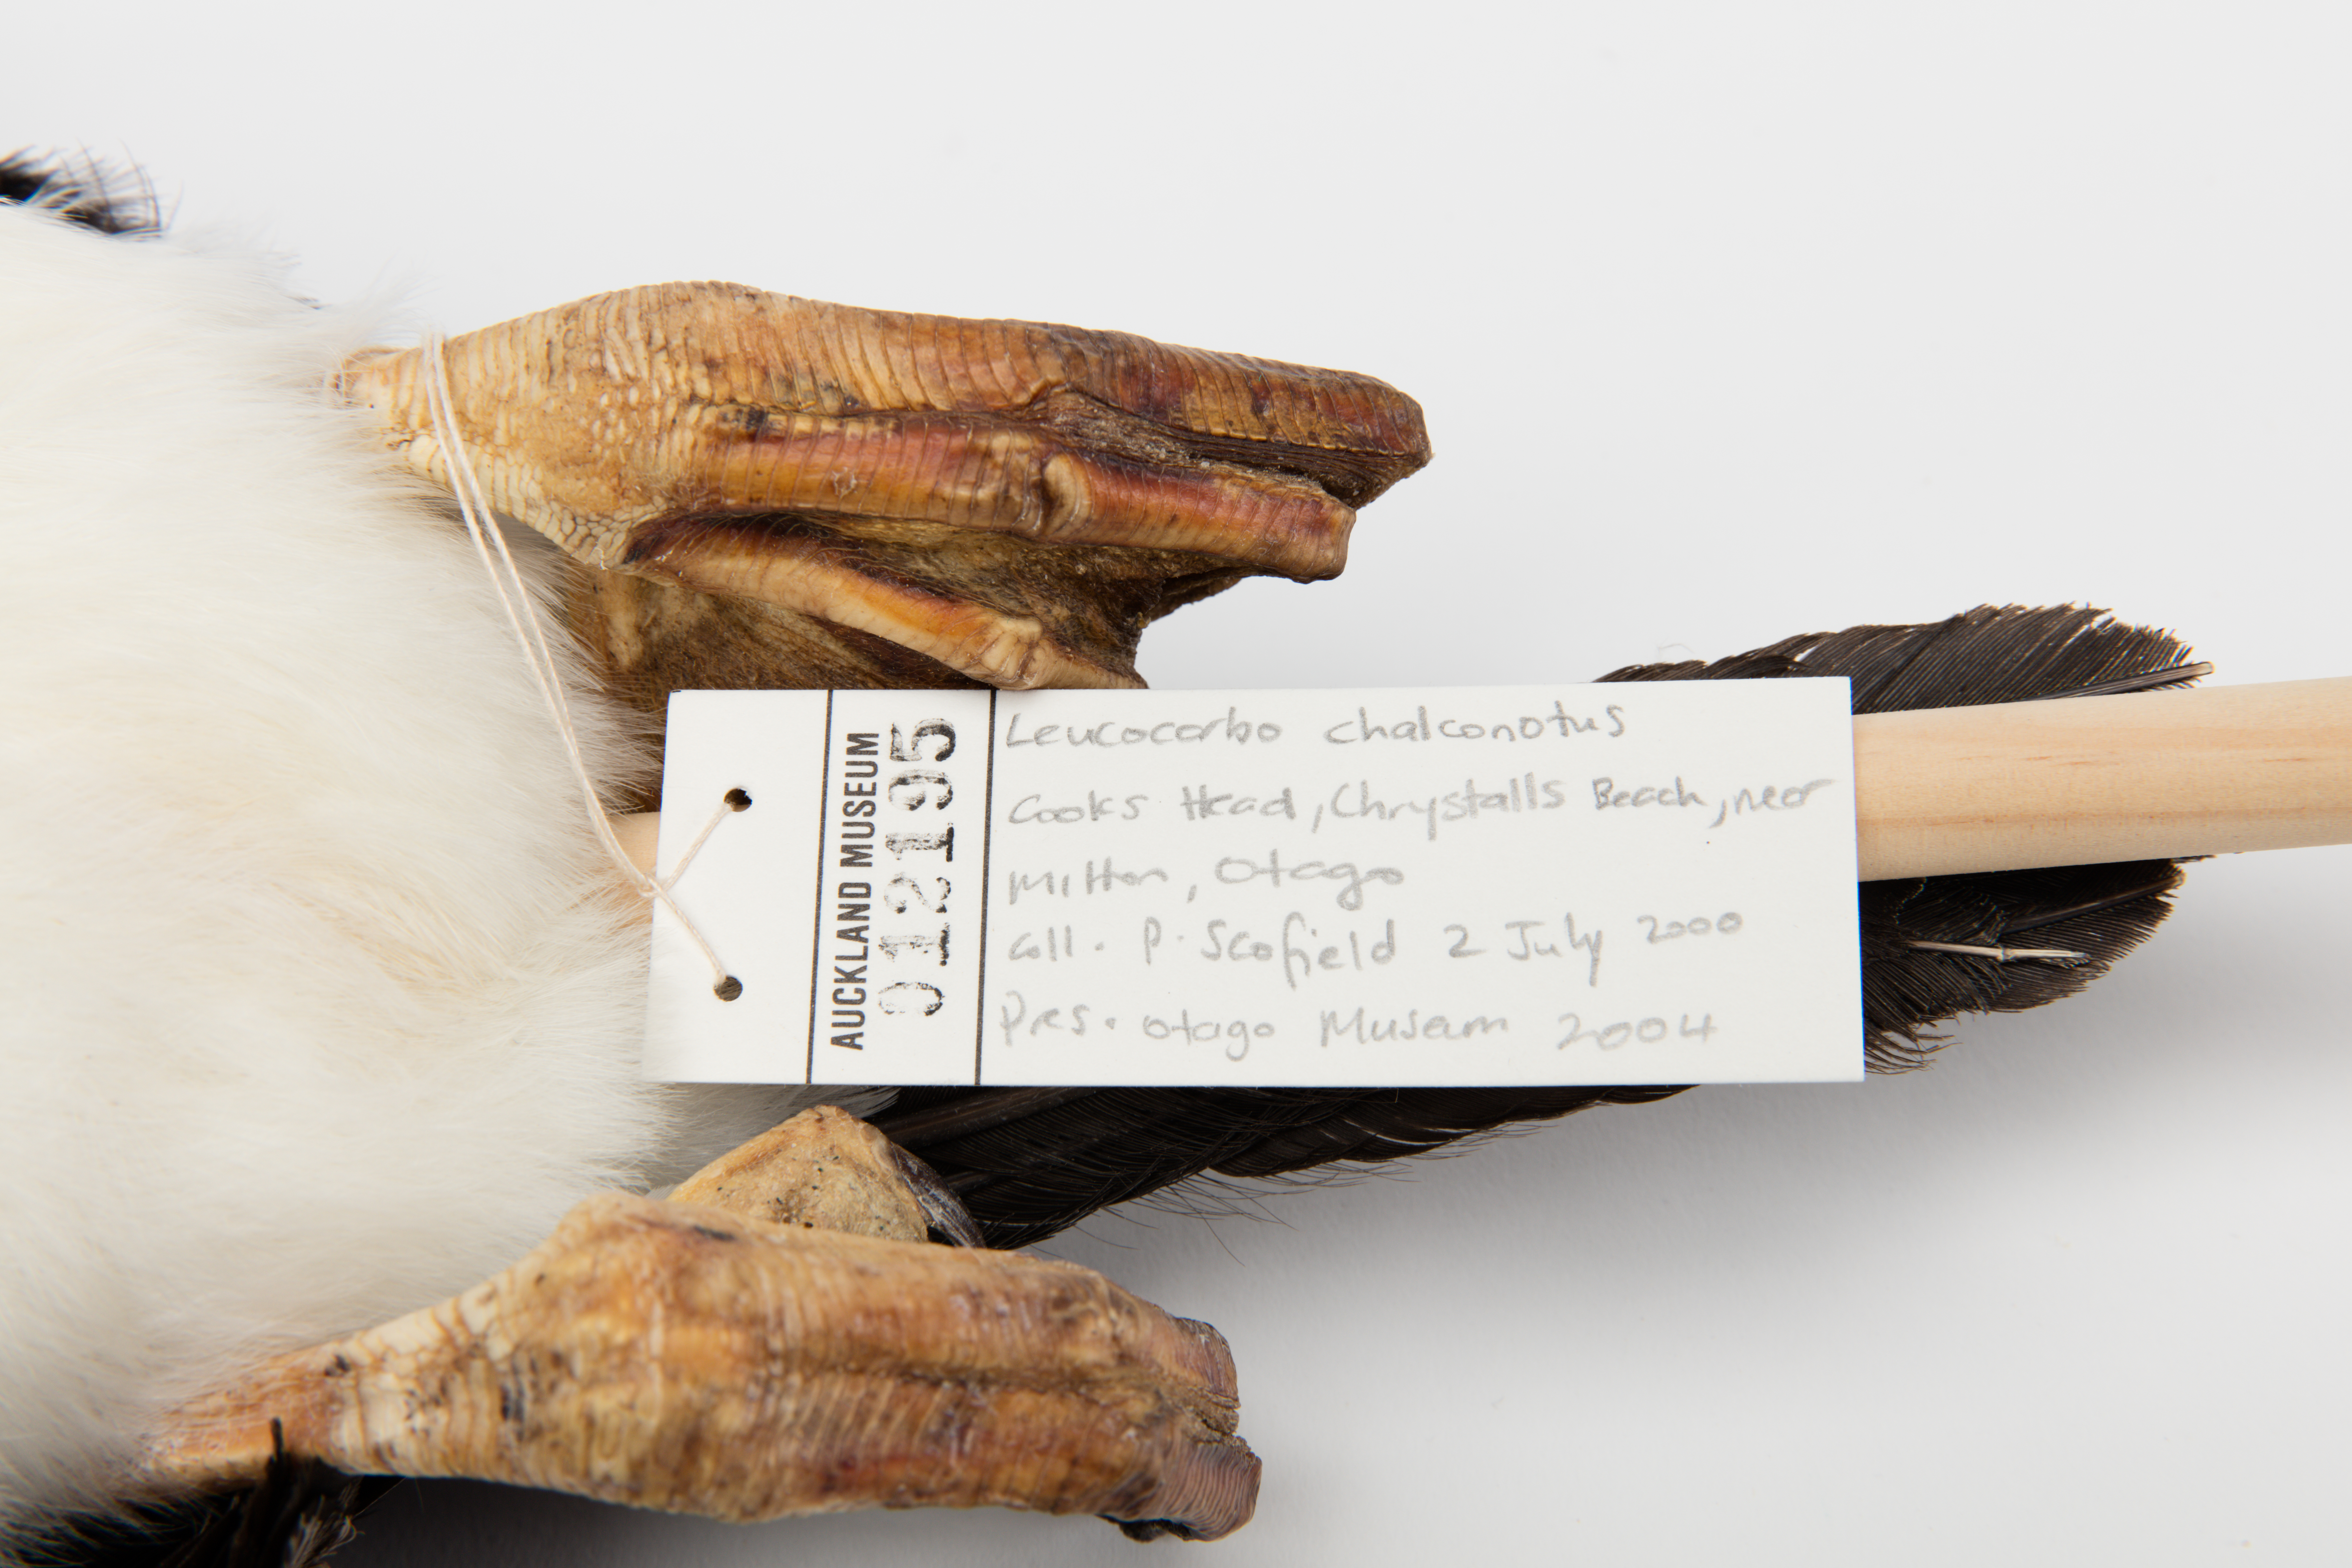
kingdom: Animalia
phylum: Chordata
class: Aves
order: Suliformes
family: Phalacrocoracidae
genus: Leucocarbo
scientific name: Leucocarbo chalconotus
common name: Stewart shag
